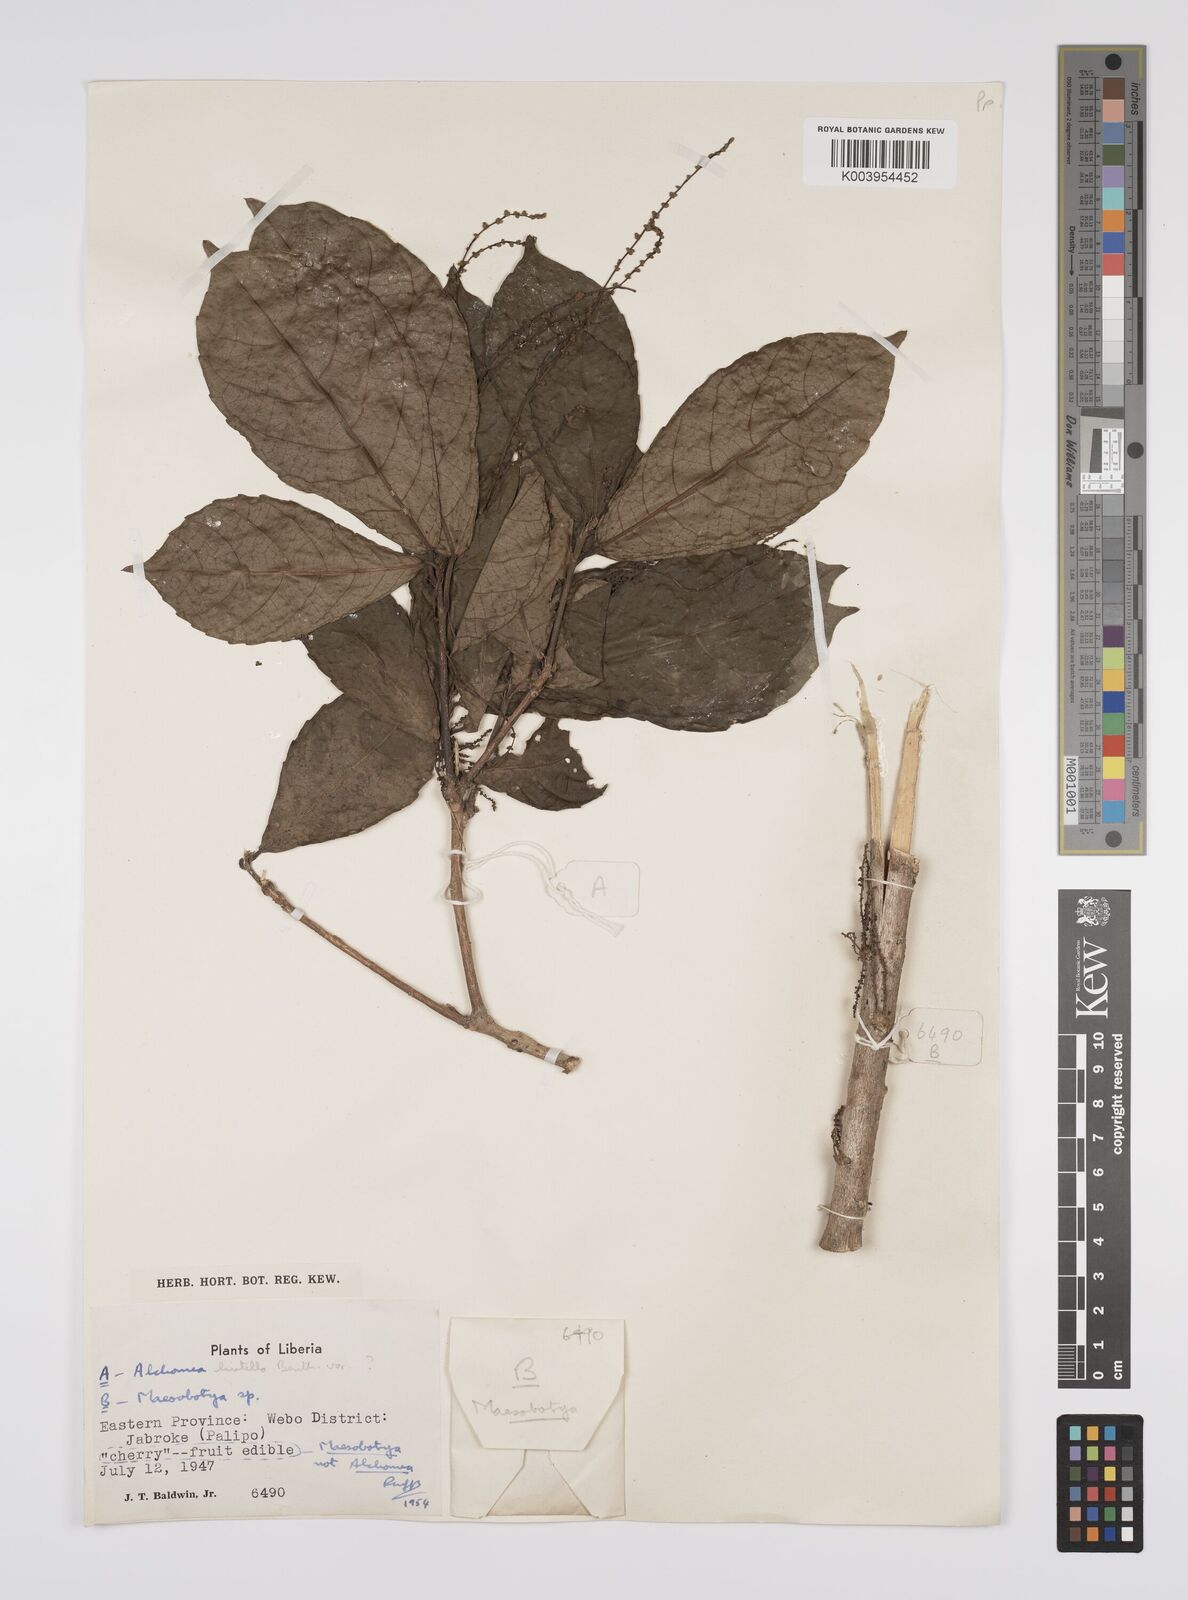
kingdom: Plantae
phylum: Tracheophyta
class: Magnoliopsida
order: Malpighiales
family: Euphorbiaceae
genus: Alchornea
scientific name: Alchornea hirtella
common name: Forest bead-string
